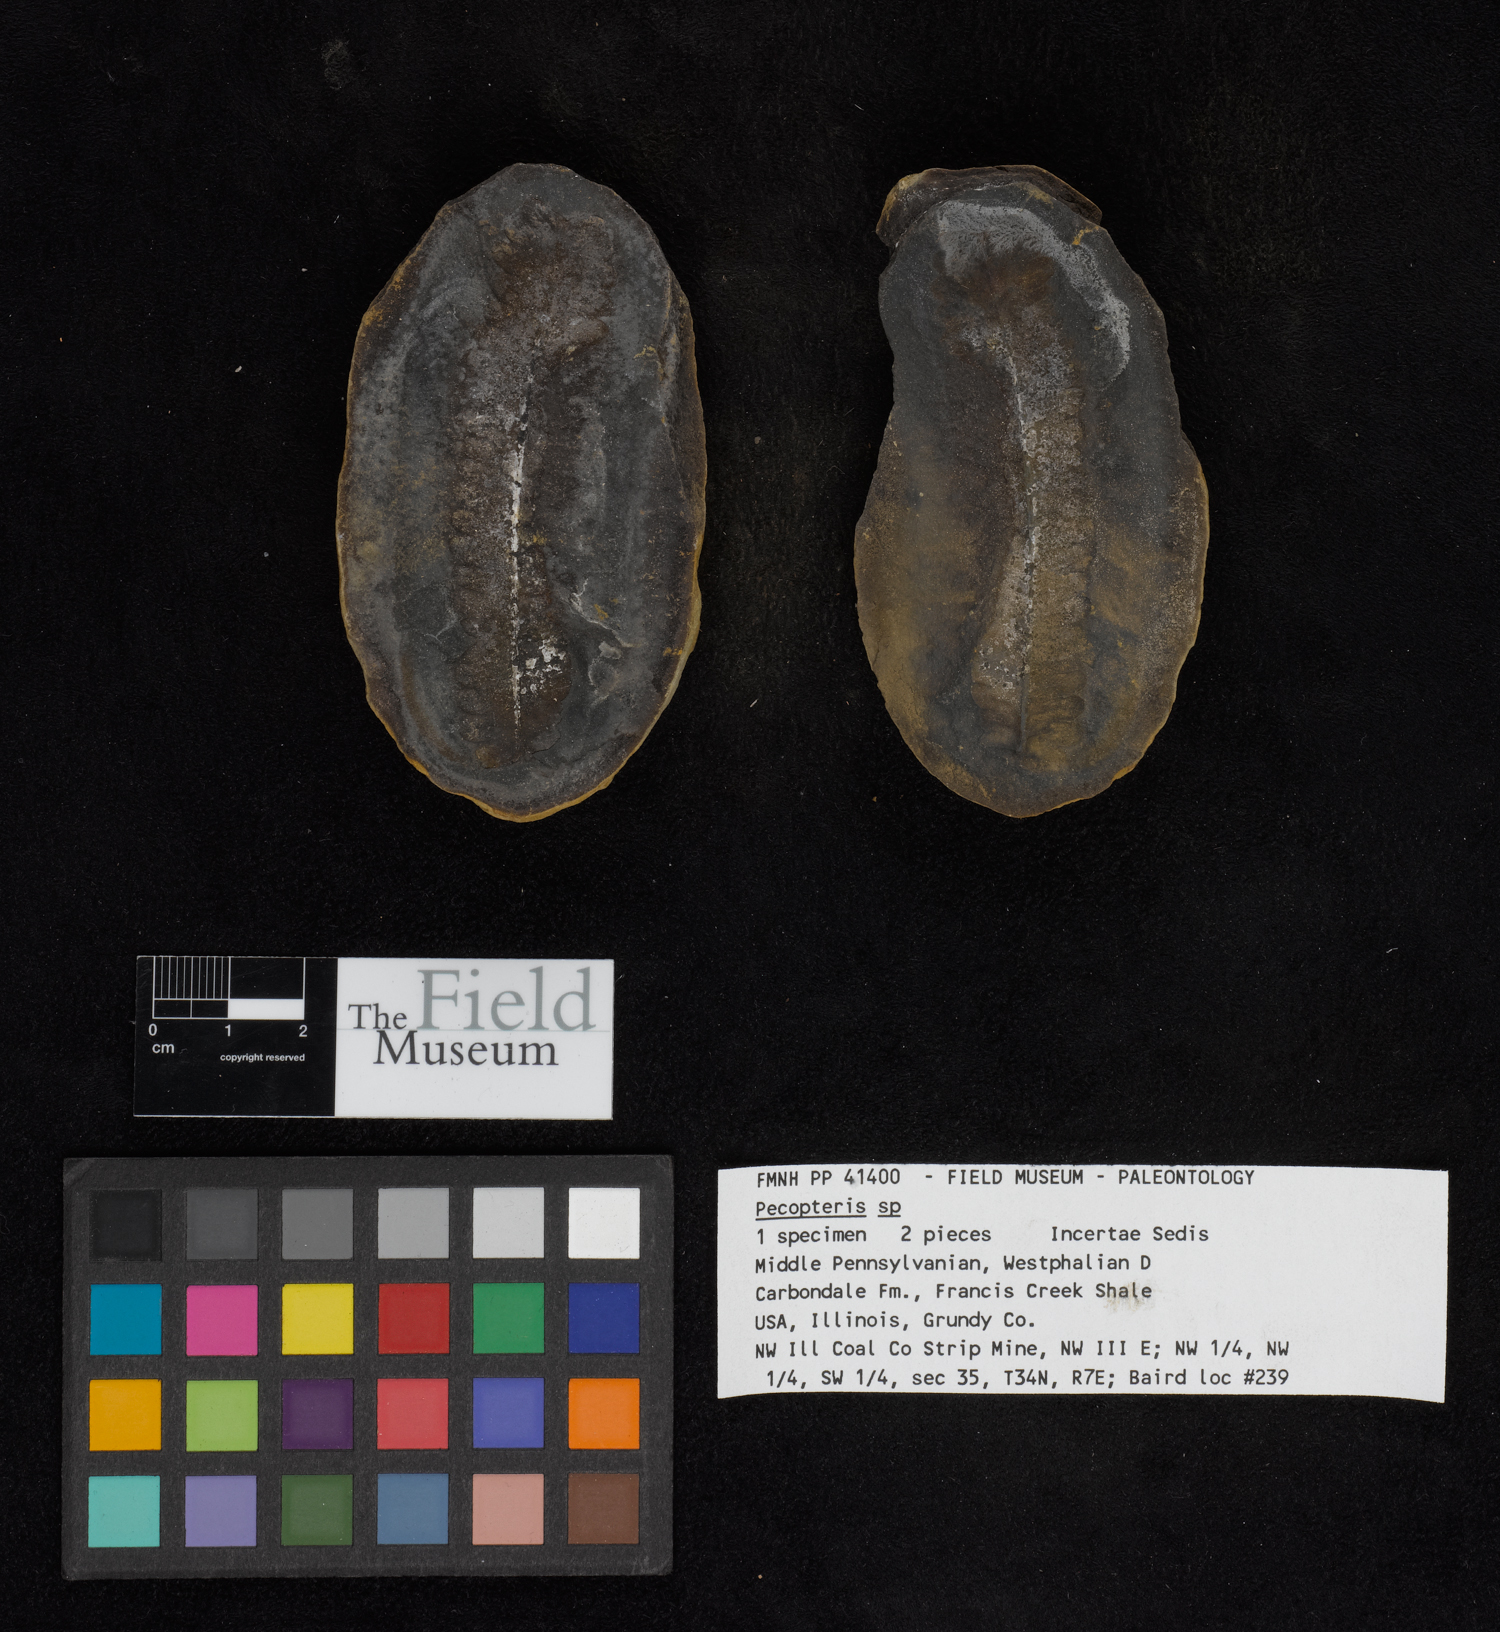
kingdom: Plantae
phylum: Tracheophyta
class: Polypodiopsida
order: Marattiales
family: Asterothecaceae
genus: Pecopteris
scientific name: Pecopteris
